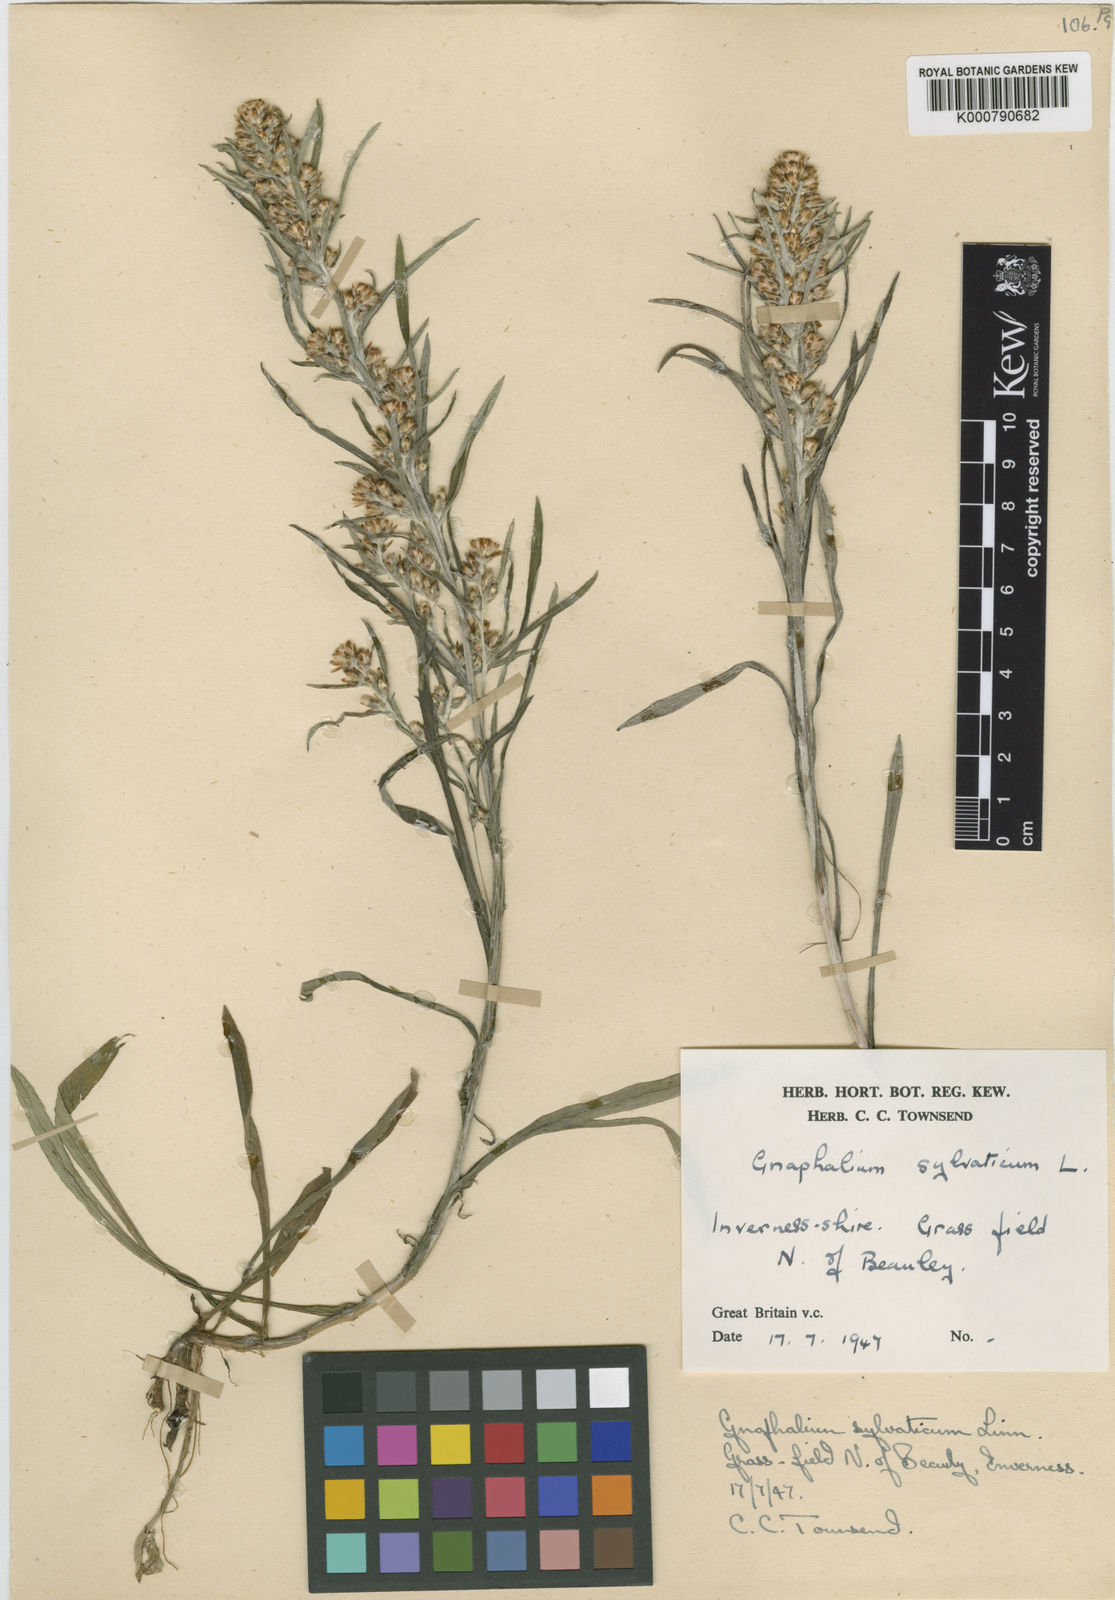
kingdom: Plantae
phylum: Tracheophyta
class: Magnoliopsida
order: Asterales
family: Asteraceae
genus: Omalotheca
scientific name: Omalotheca sylvatica
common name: Heath cudweed
